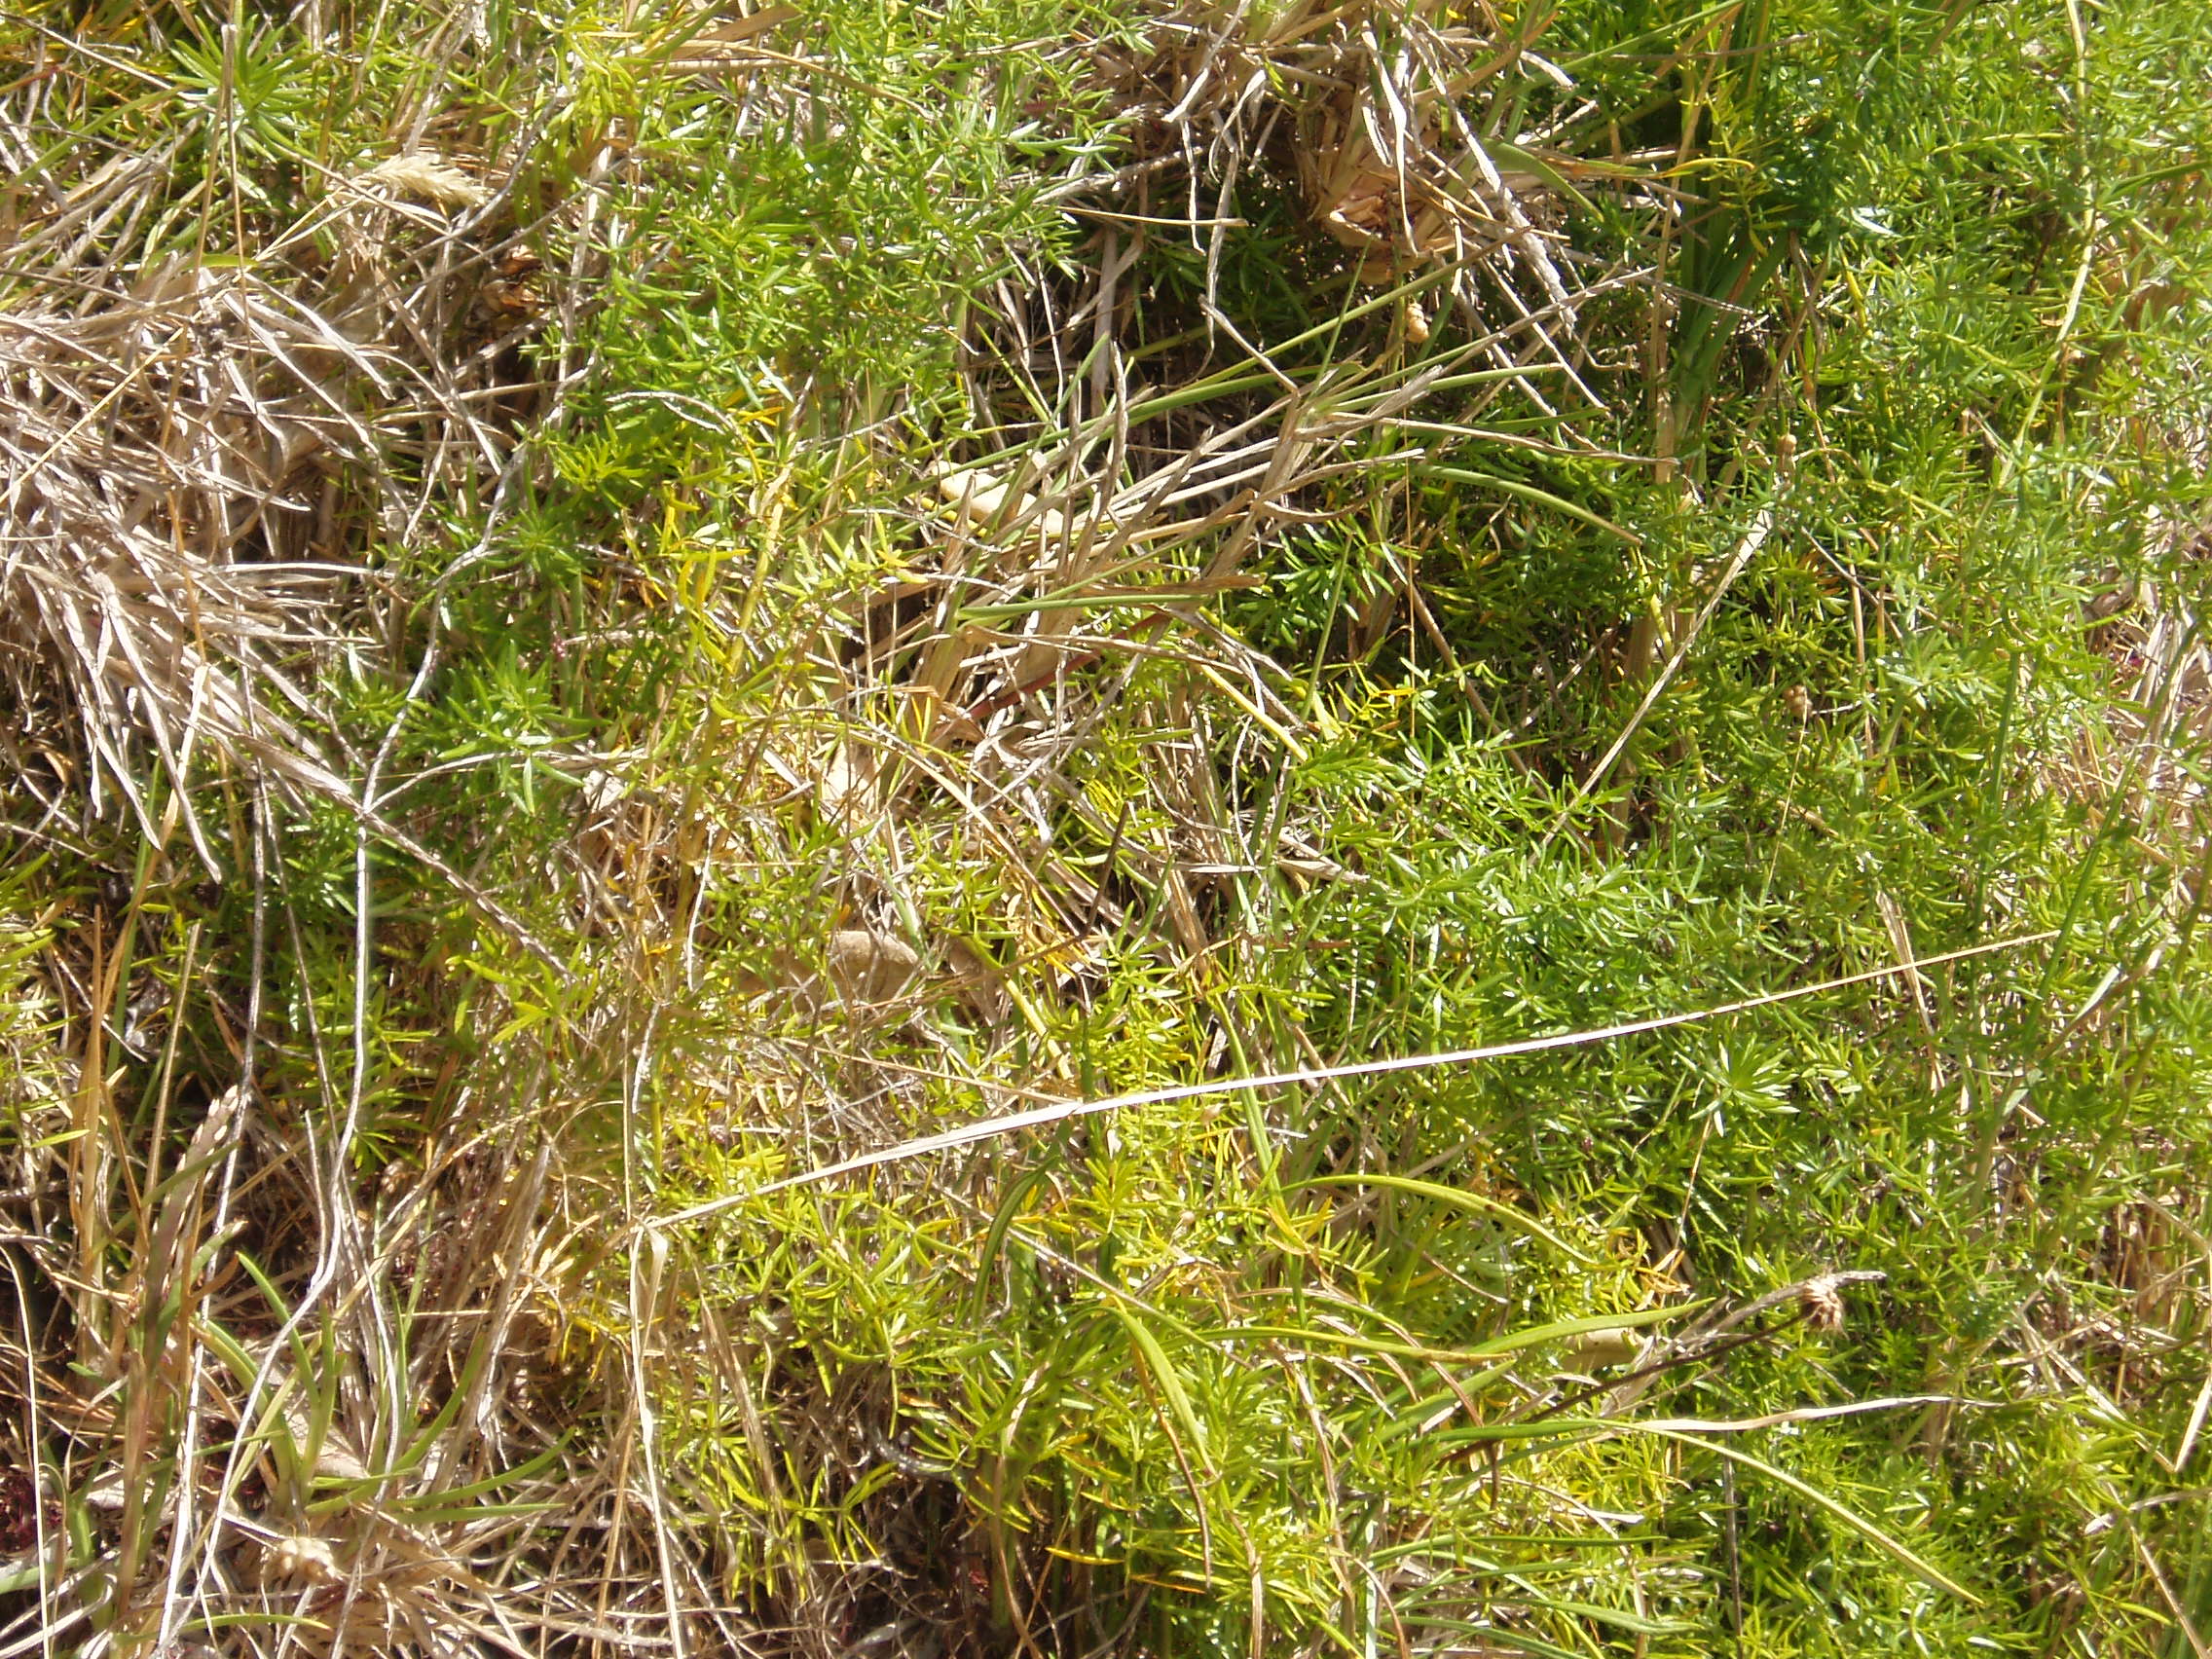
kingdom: Plantae
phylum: Tracheophyta
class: Liliopsida
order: Asparagales
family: Asparagaceae
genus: Asparagus
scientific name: Asparagus aethiopicus
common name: Sprenger's asparagus fern
